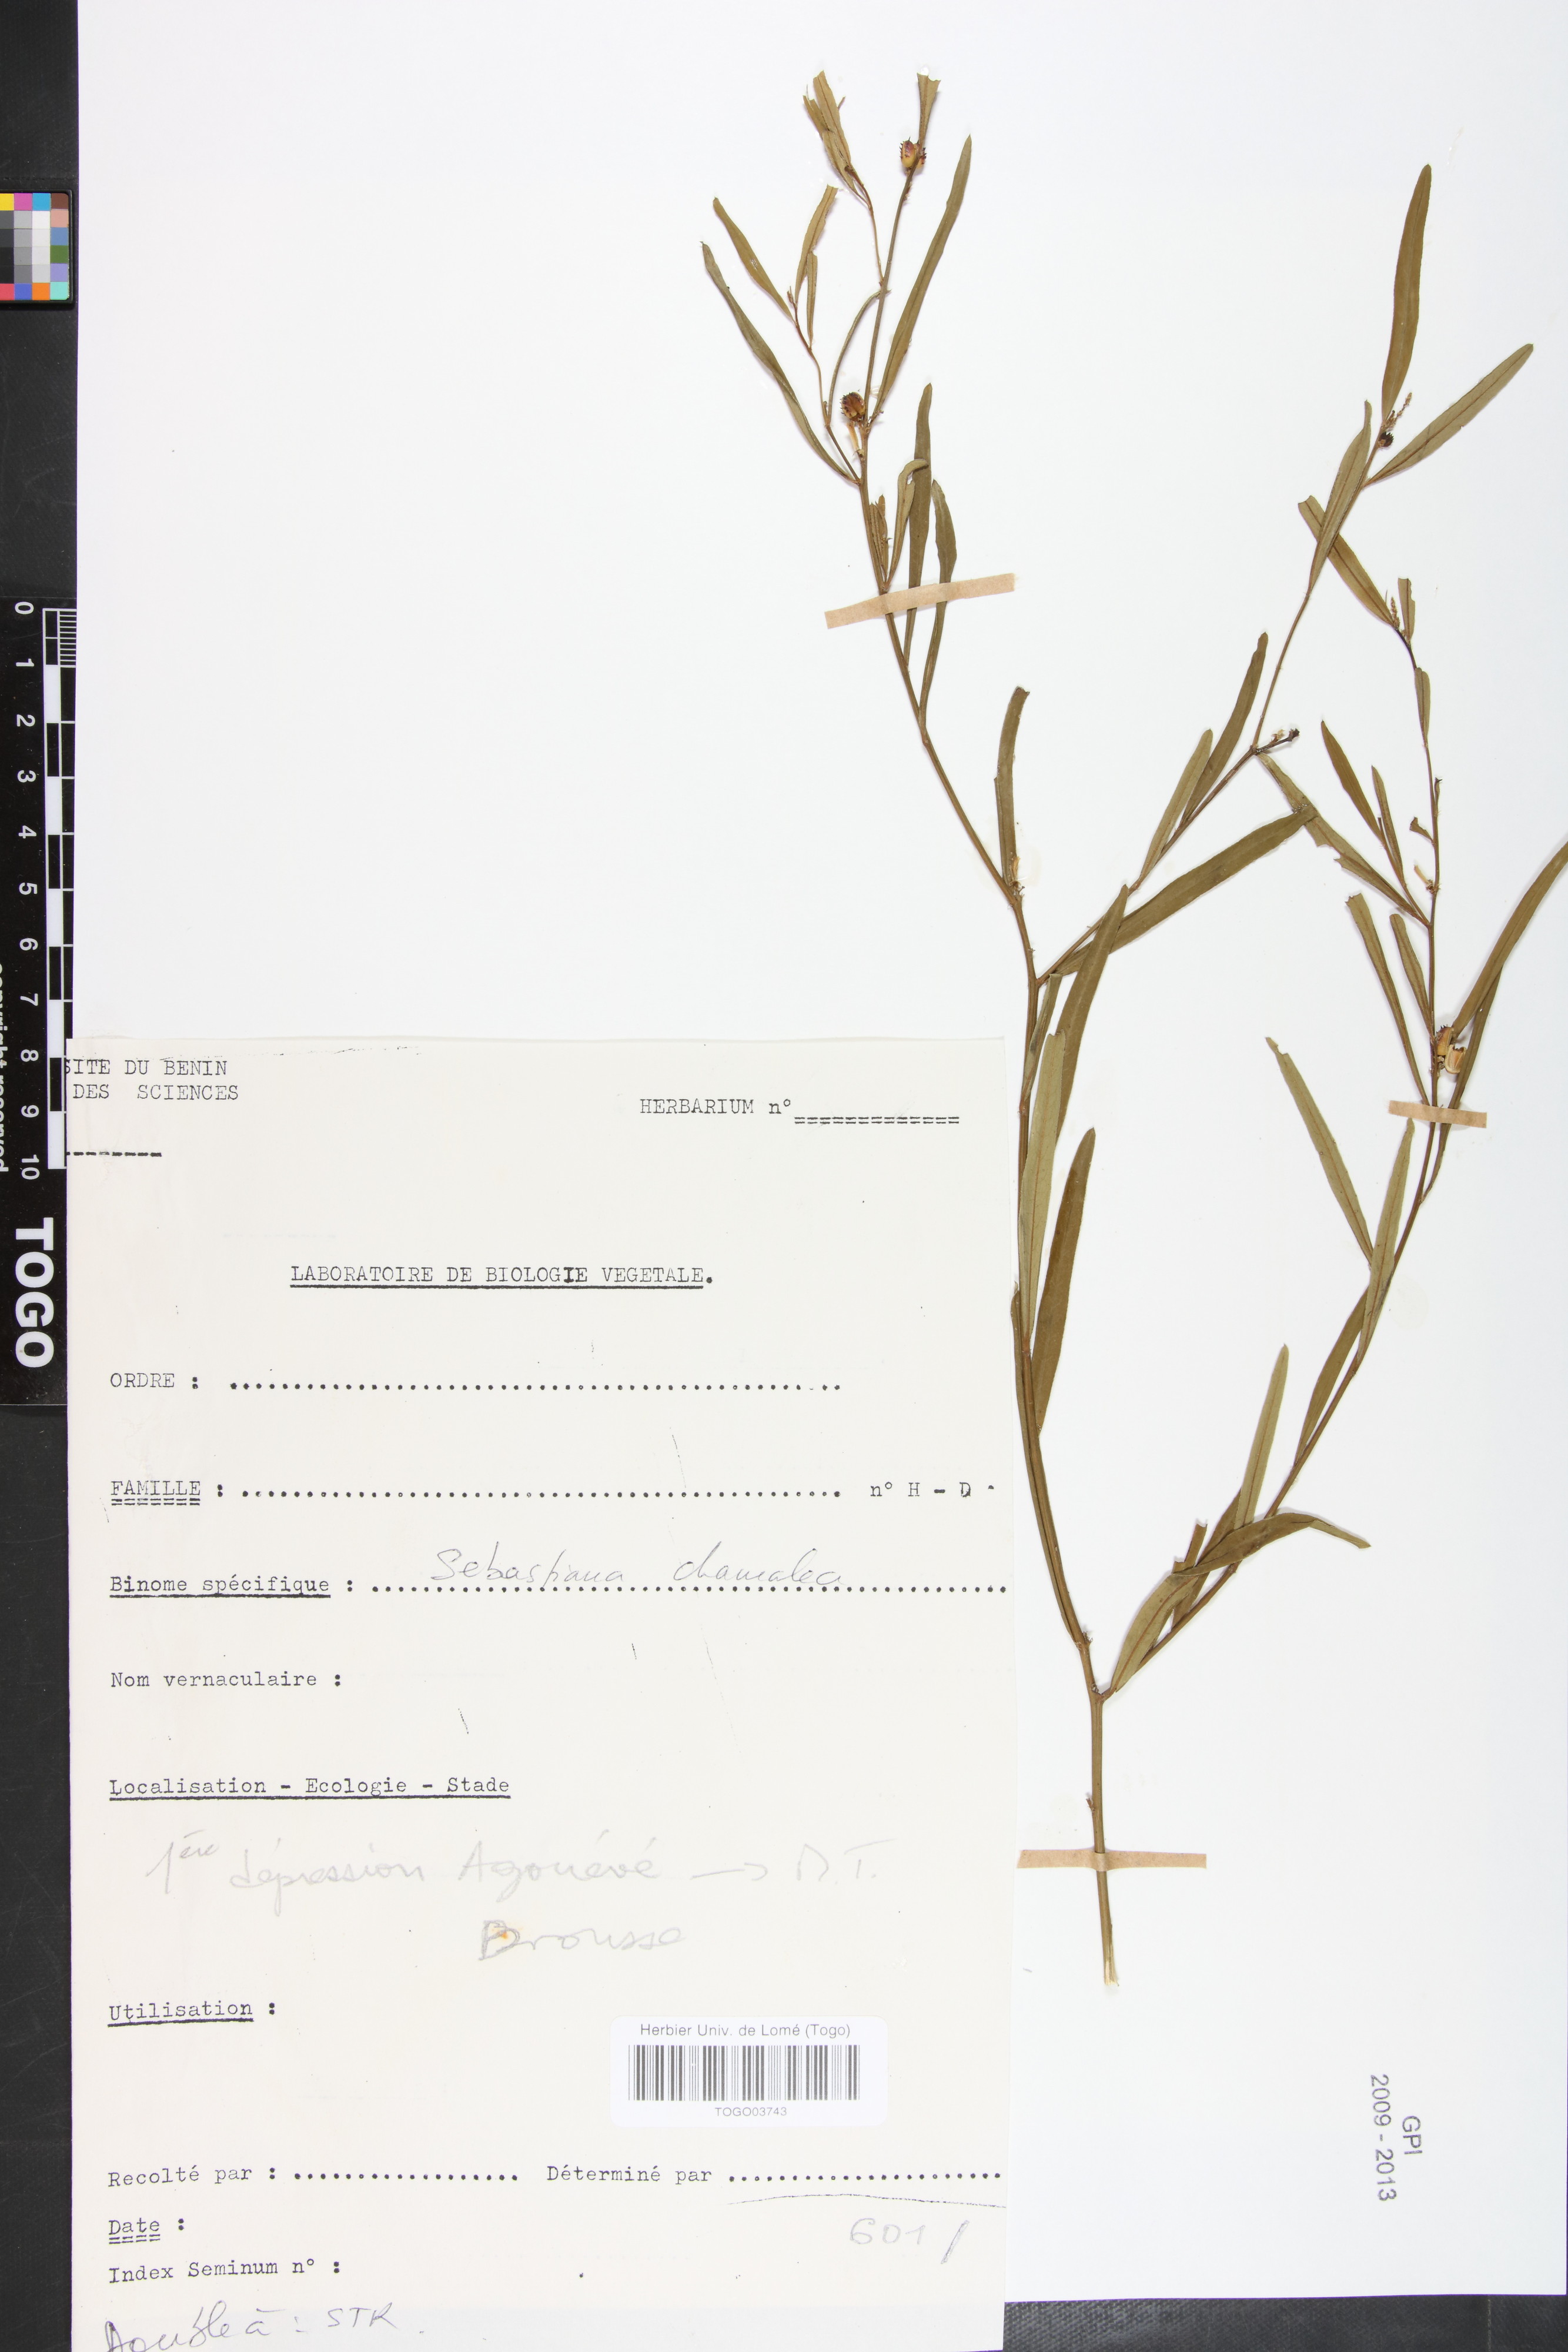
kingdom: Plantae
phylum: Tracheophyta
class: Magnoliopsida
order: Malpighiales
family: Euphorbiaceae
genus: Microstachys
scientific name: Microstachys chamaelea
